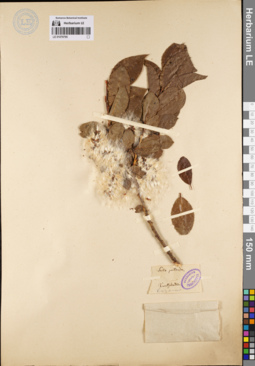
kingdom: Plantae
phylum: Tracheophyta
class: Magnoliopsida
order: Malpighiales
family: Salicaceae
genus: Salix
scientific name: Salix pseudopentandra
